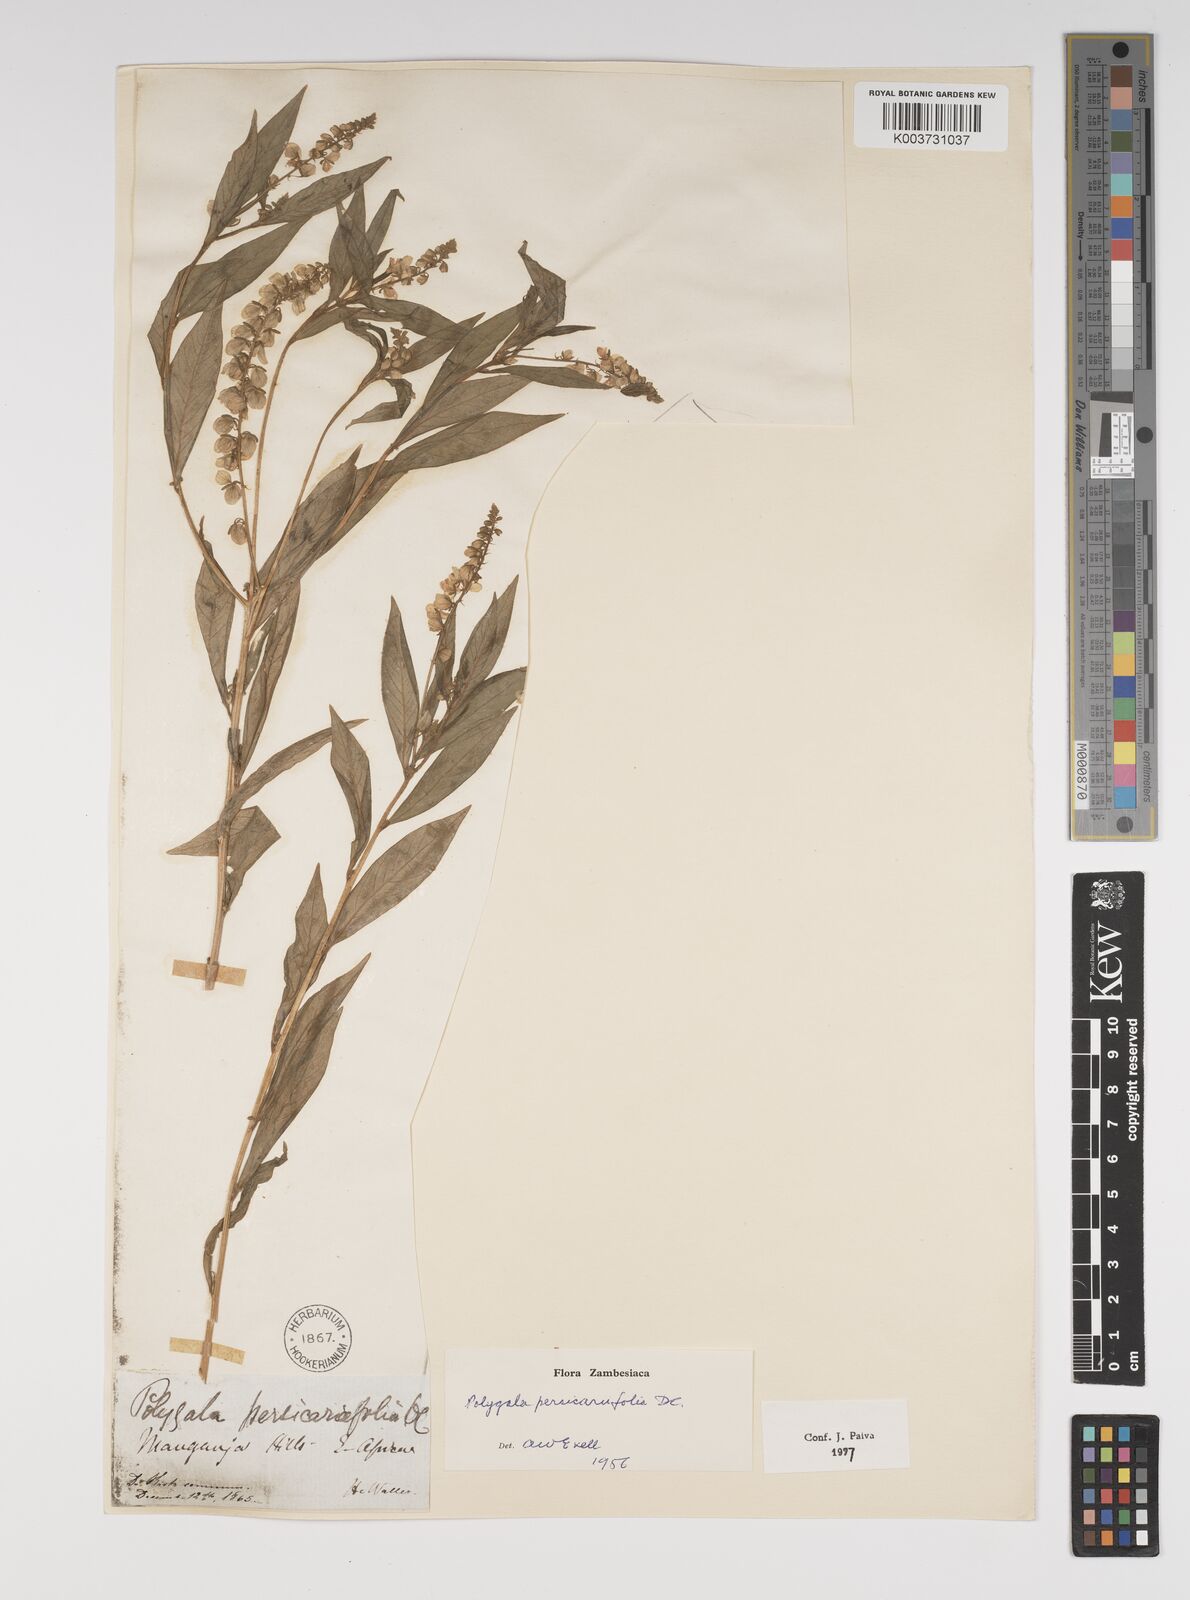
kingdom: Plantae
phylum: Tracheophyta
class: Magnoliopsida
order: Fabales
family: Polygalaceae
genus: Polygala
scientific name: Polygala persicariifolia
